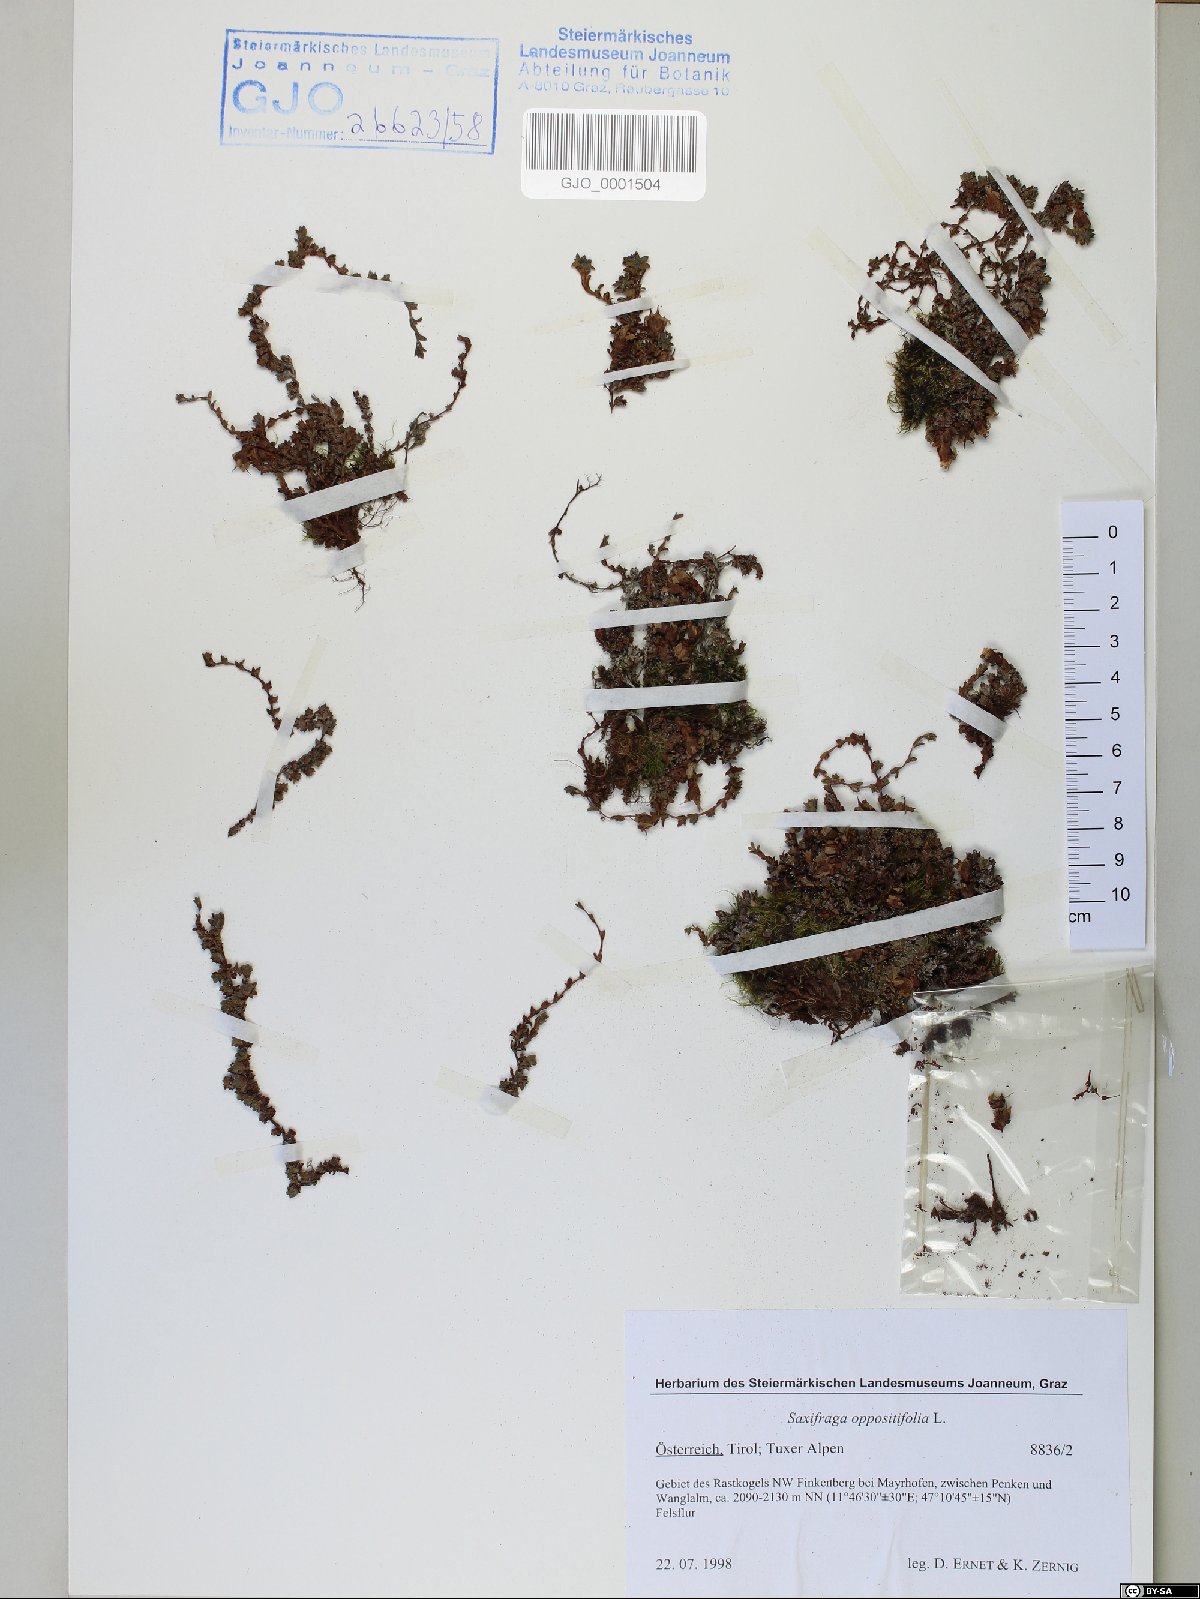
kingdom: Plantae
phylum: Tracheophyta
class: Magnoliopsida
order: Saxifragales
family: Saxifragaceae
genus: Saxifraga
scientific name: Saxifraga oppositifolia
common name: Purple saxifrage
